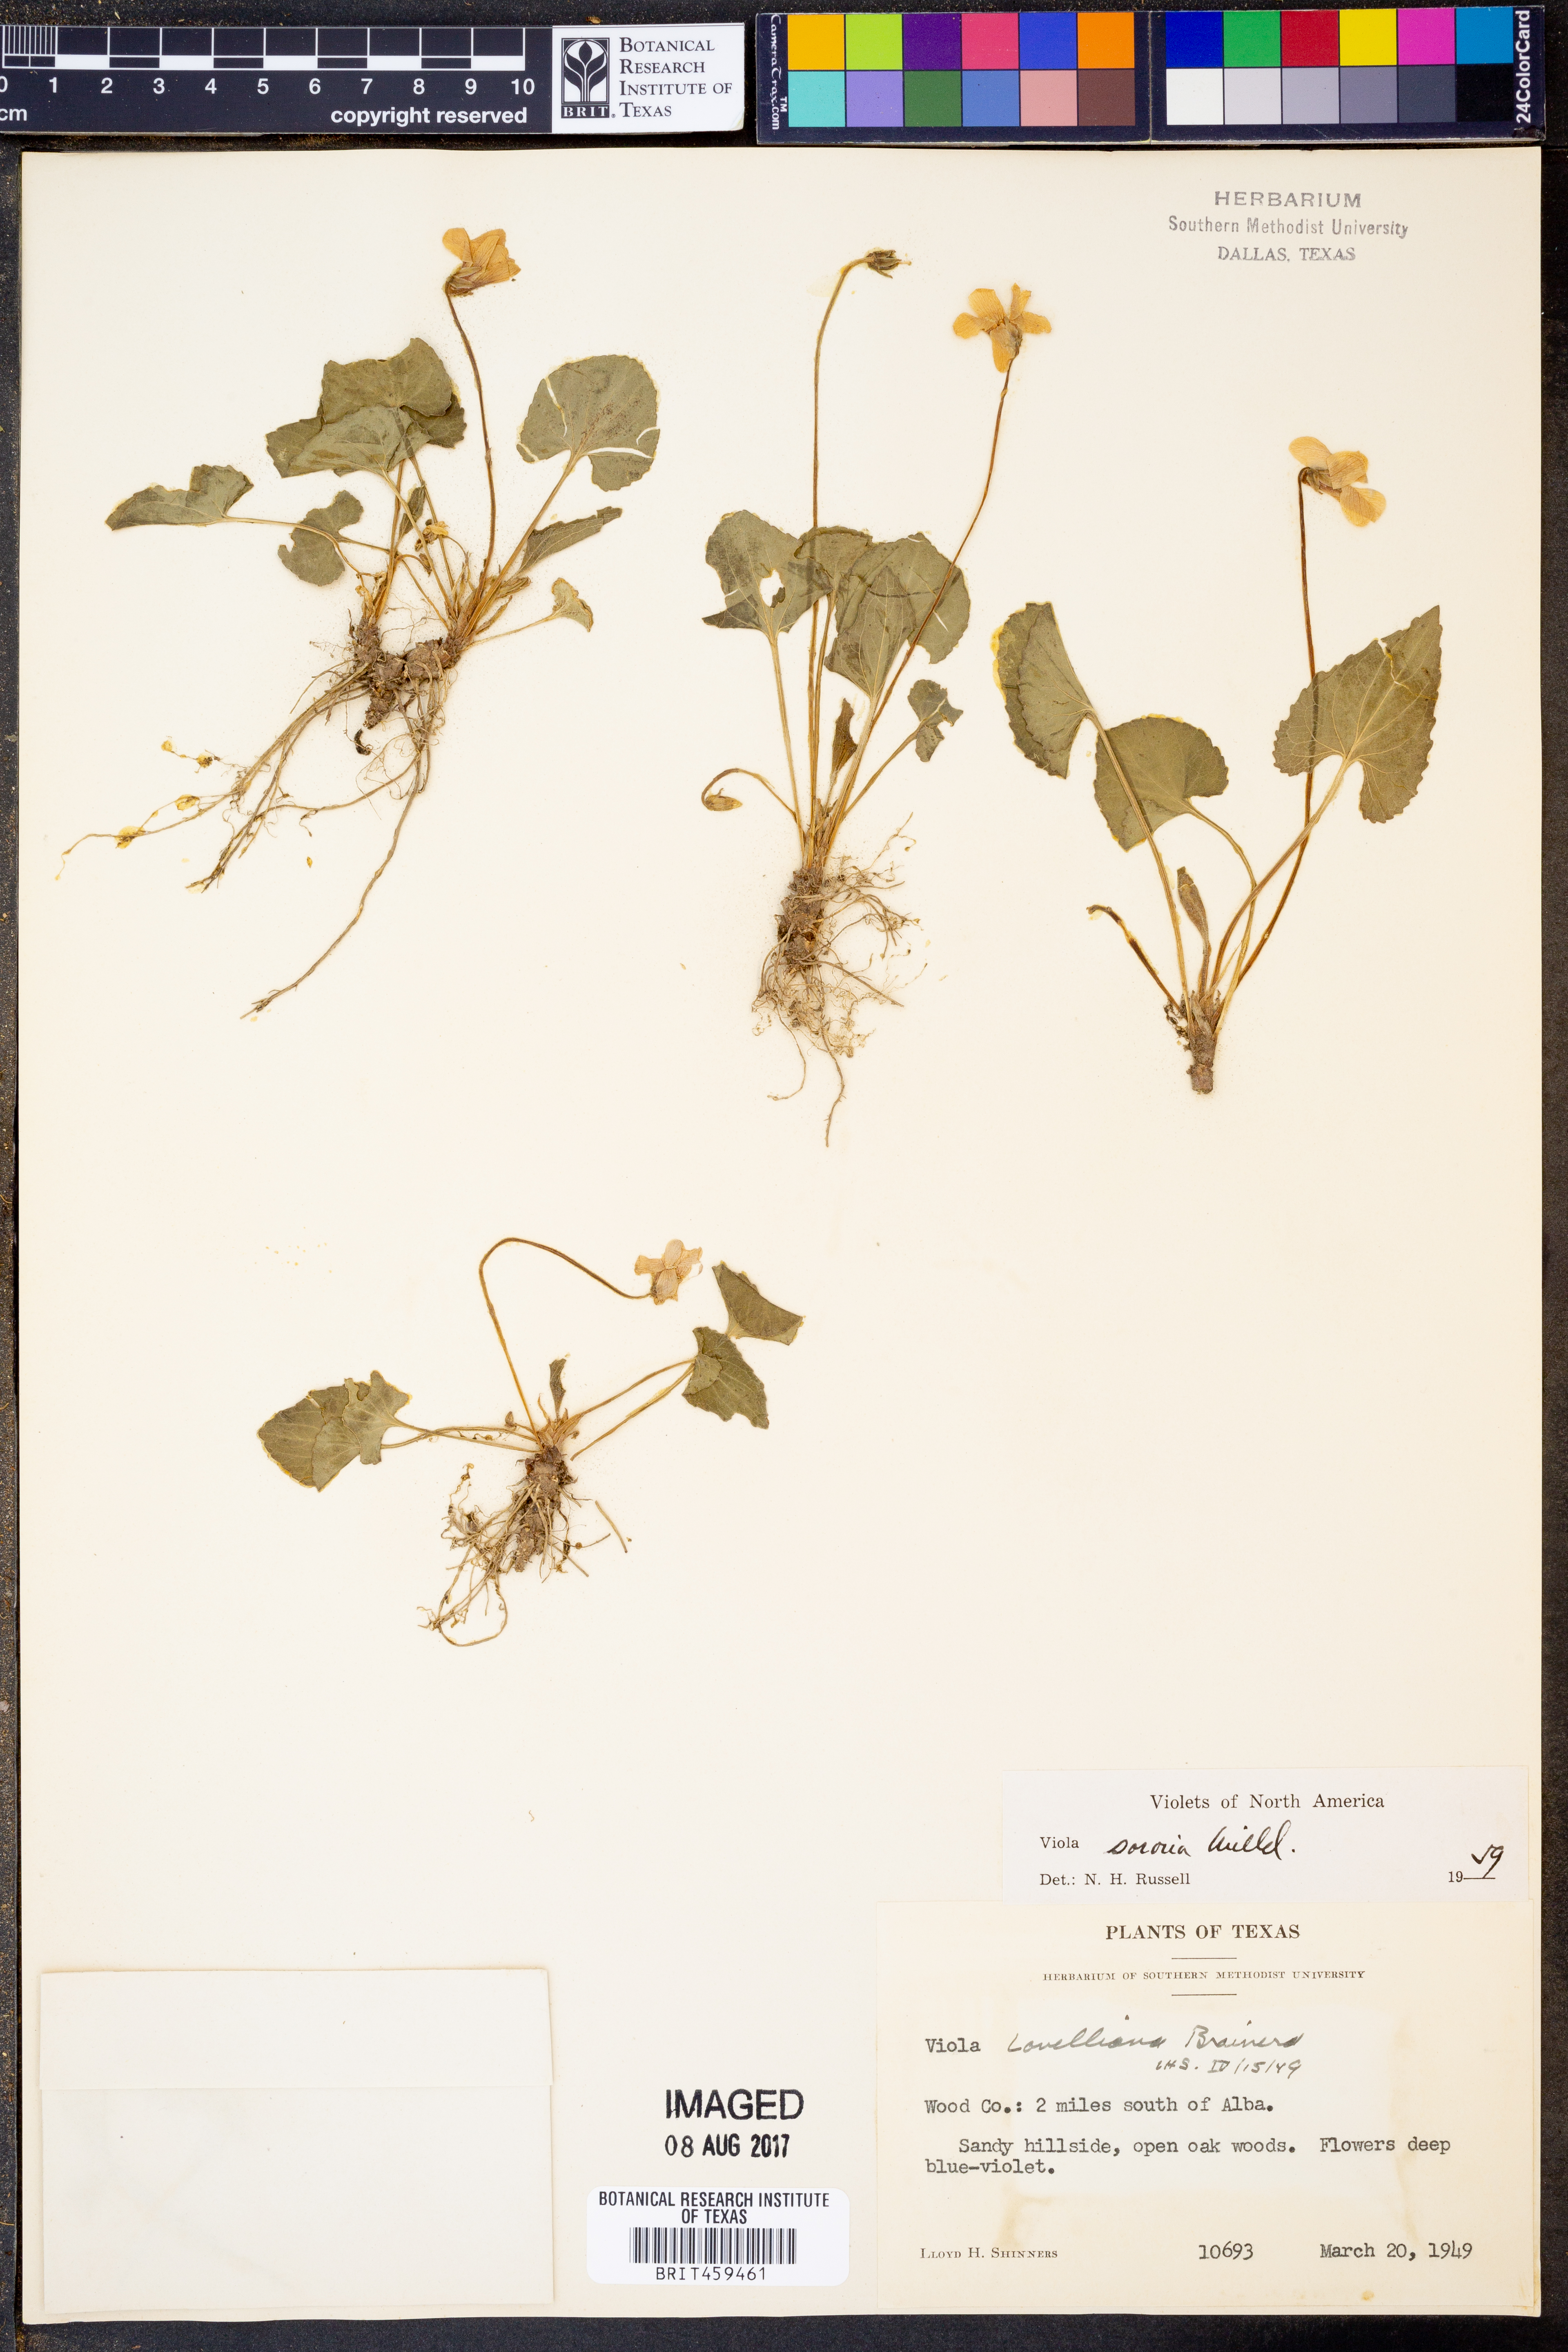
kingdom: Plantae
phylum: Tracheophyta
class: Magnoliopsida
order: Malpighiales
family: Violaceae
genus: Viola
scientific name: Viola sororia
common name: Dooryard violet
